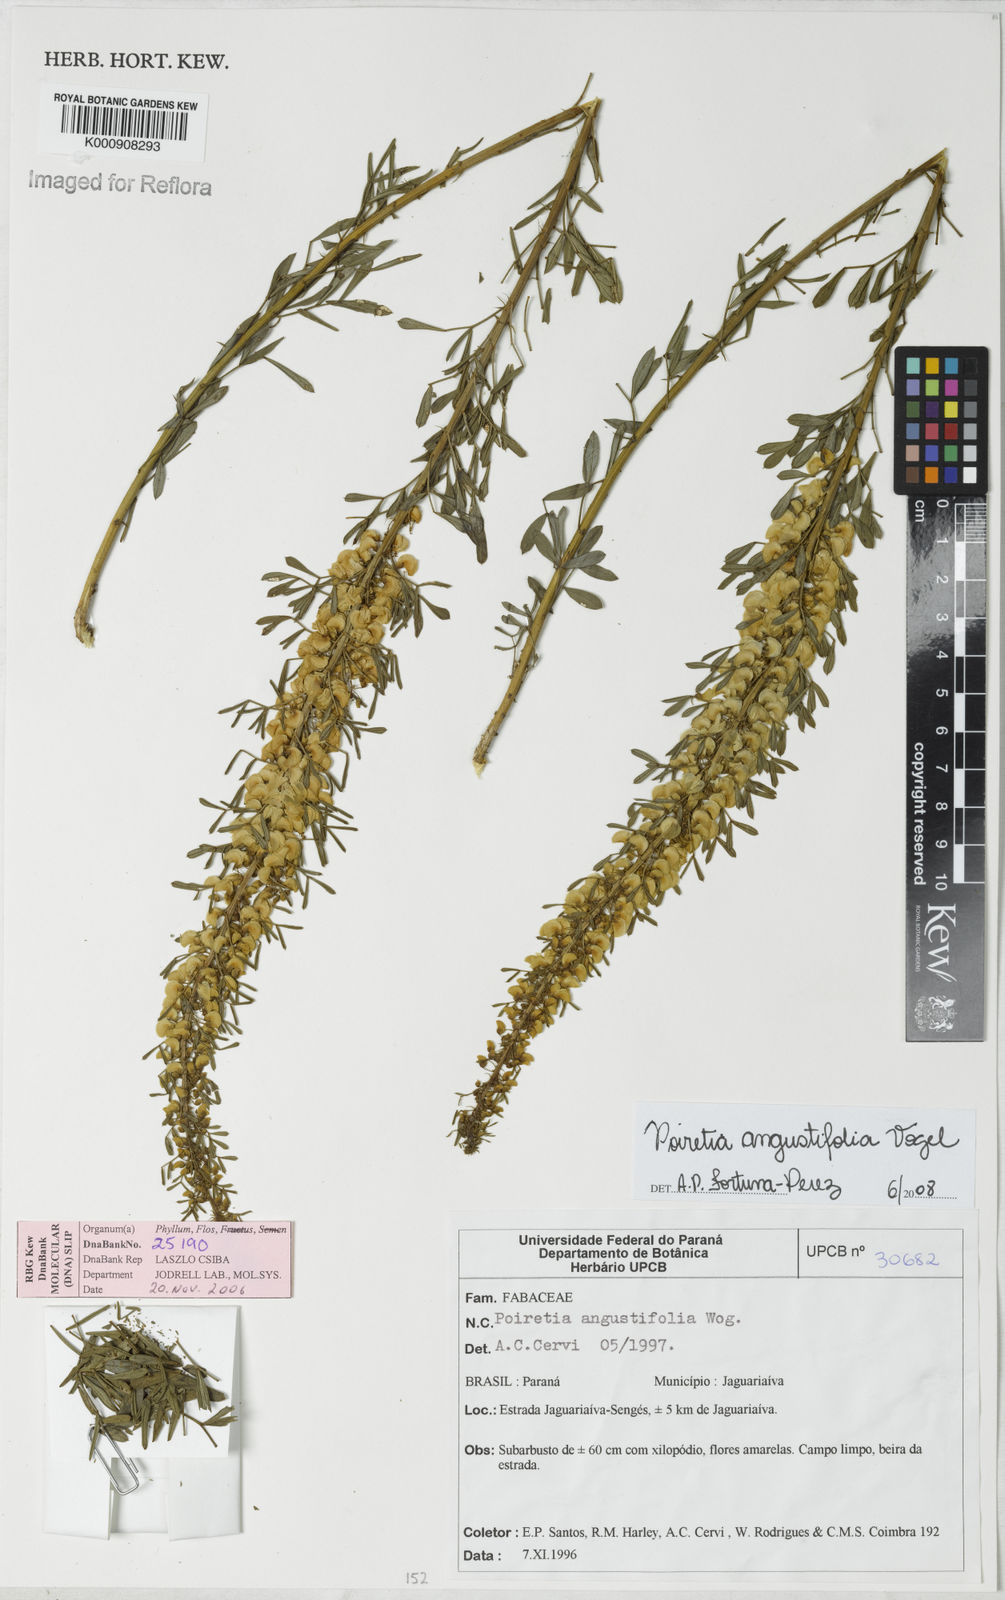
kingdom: Plantae
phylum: Tracheophyta
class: Magnoliopsida
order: Fabales
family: Fabaceae
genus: Poiretia
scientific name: Poiretia angustifolia
